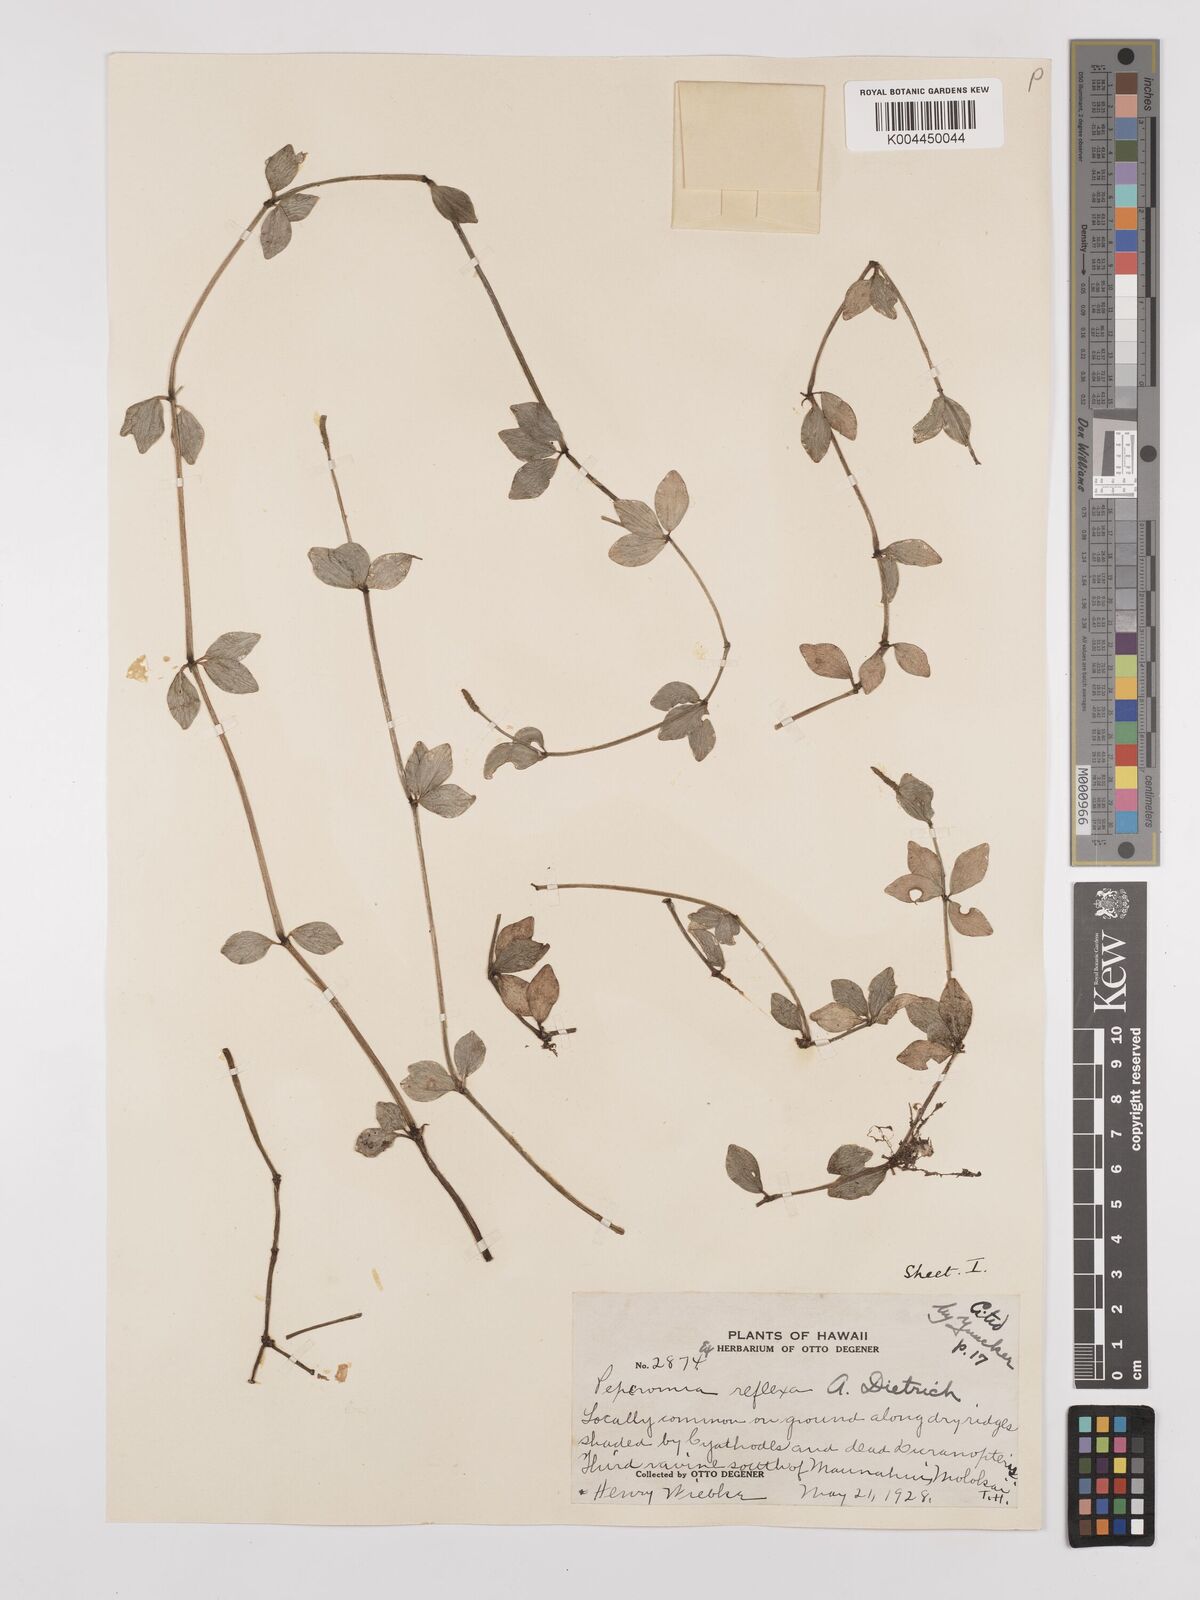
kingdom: Plantae
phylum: Tracheophyta
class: Magnoliopsida
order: Piperales
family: Piperaceae
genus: Peperomia
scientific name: Peperomia tetraphylla
